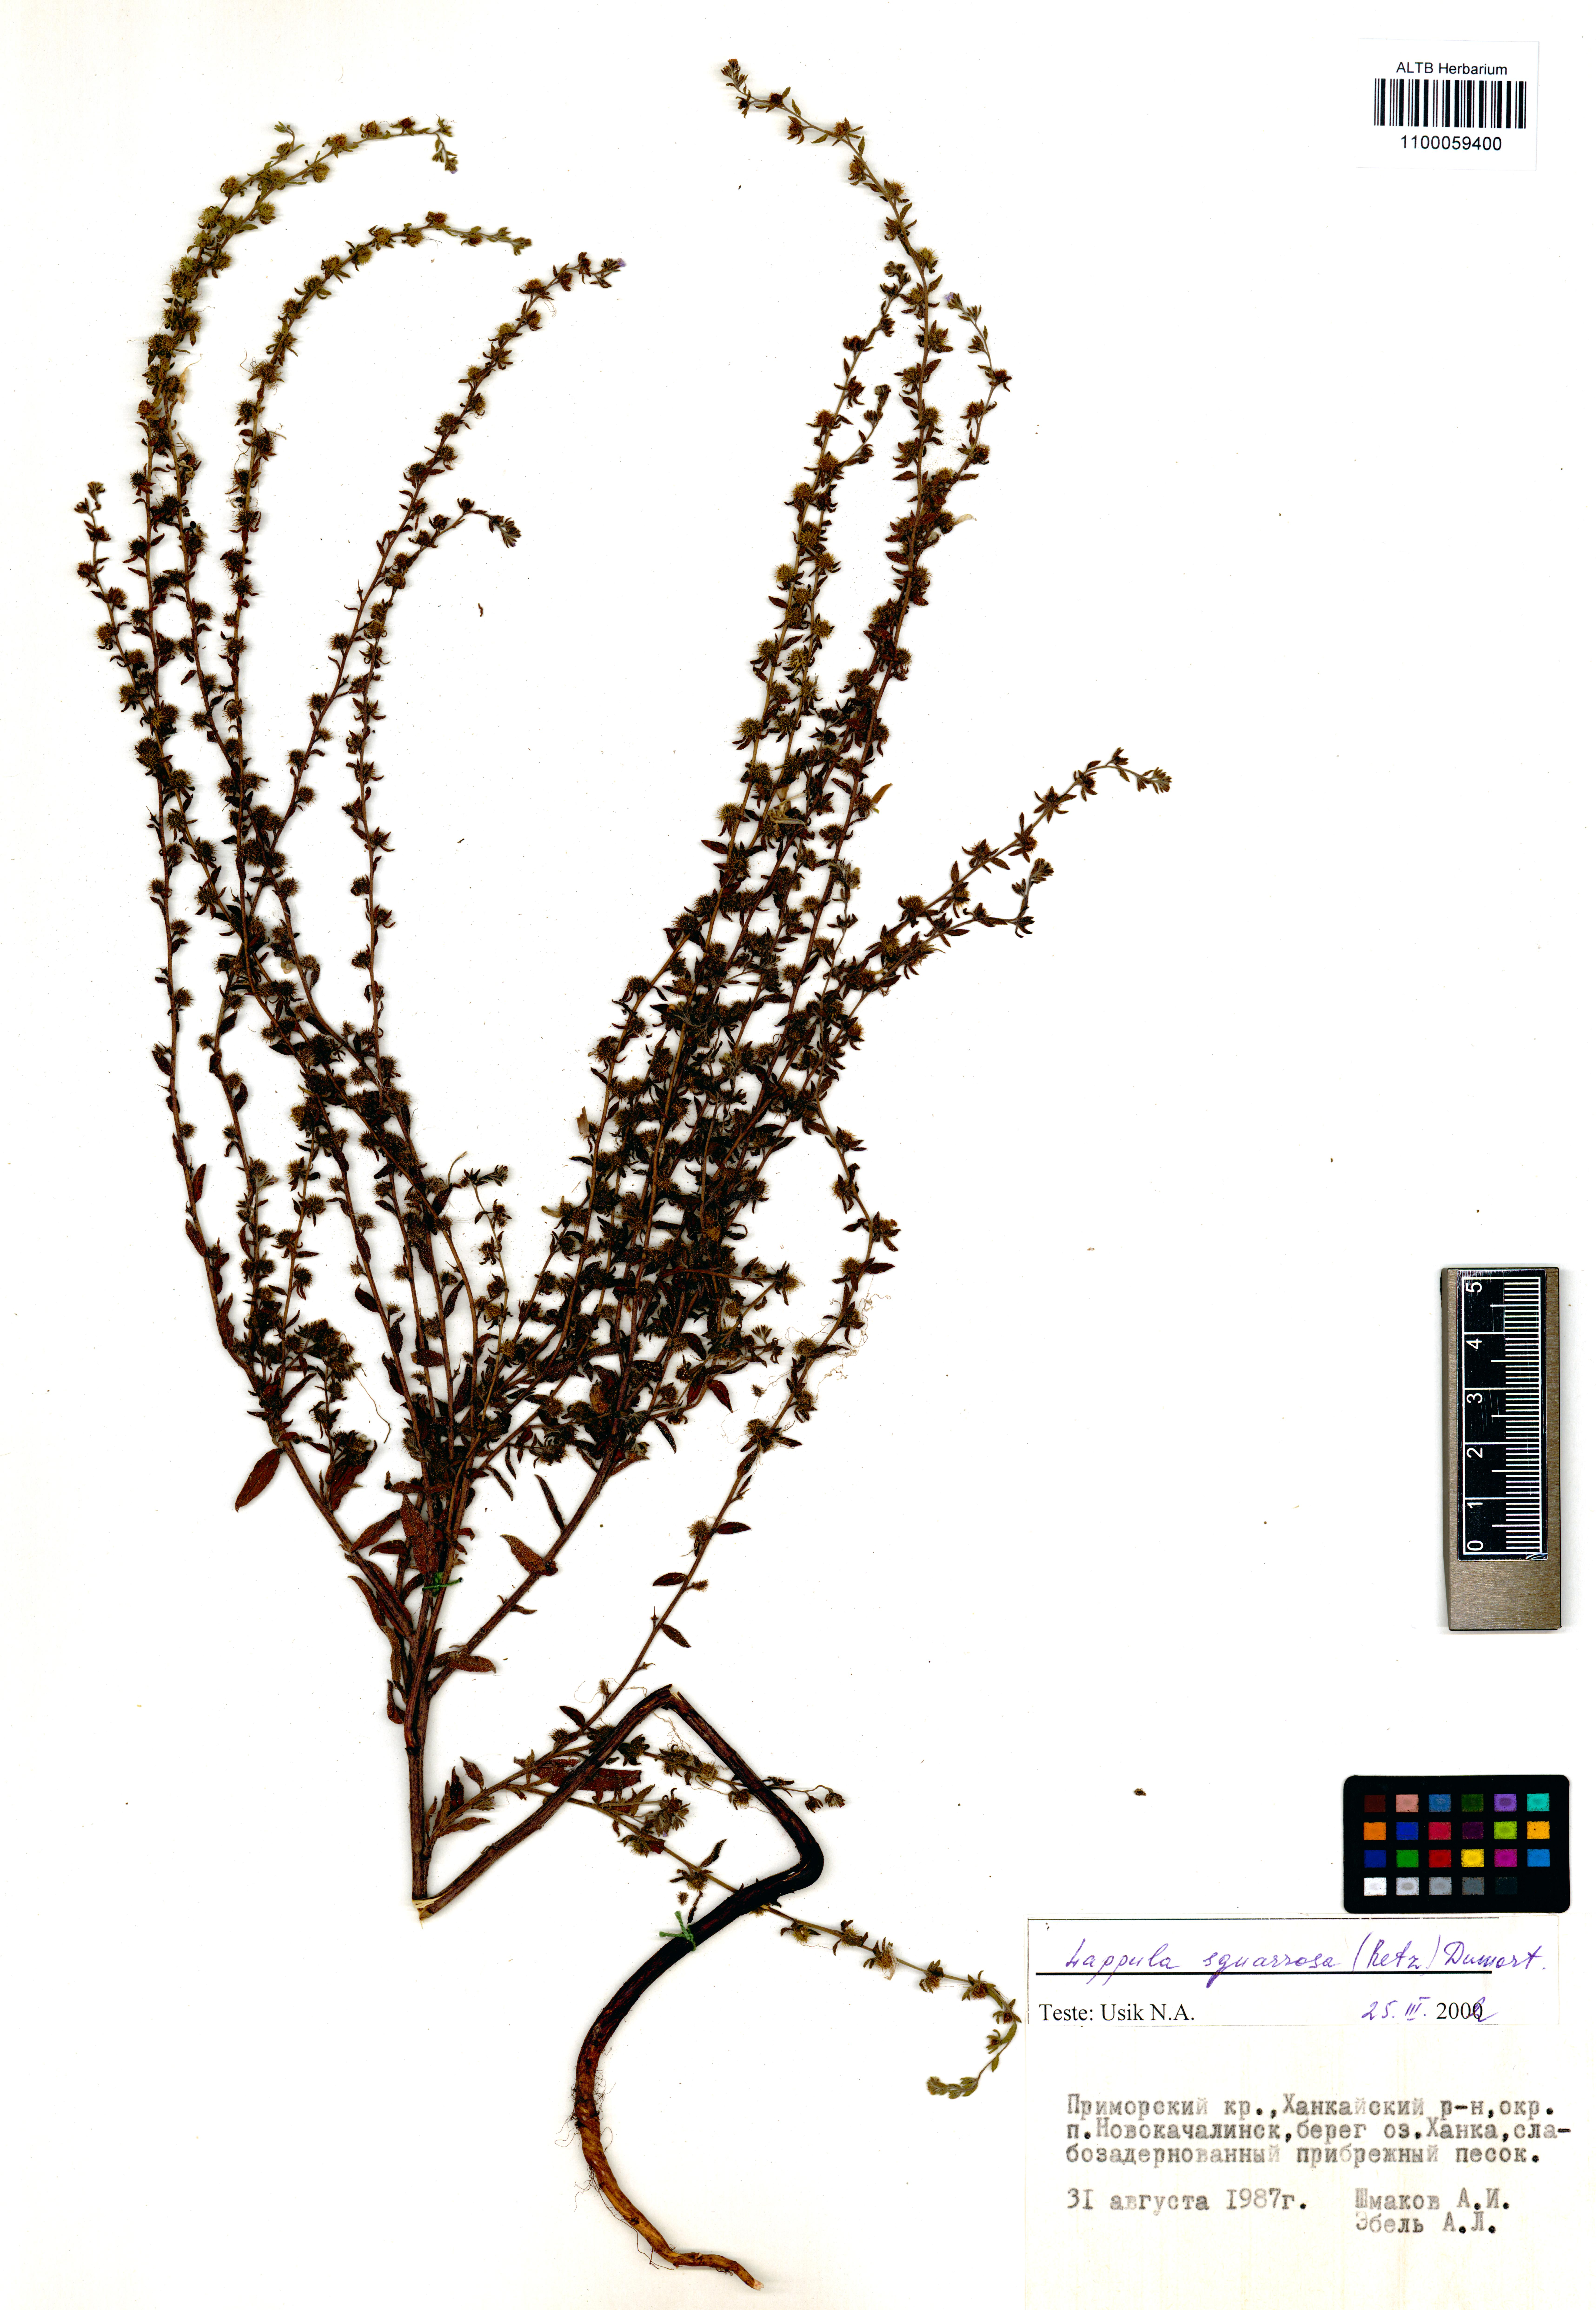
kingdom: Plantae
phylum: Tracheophyta
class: Magnoliopsida
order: Boraginales
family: Boraginaceae
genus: Lappula
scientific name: Lappula squarrosa
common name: European stickseed
